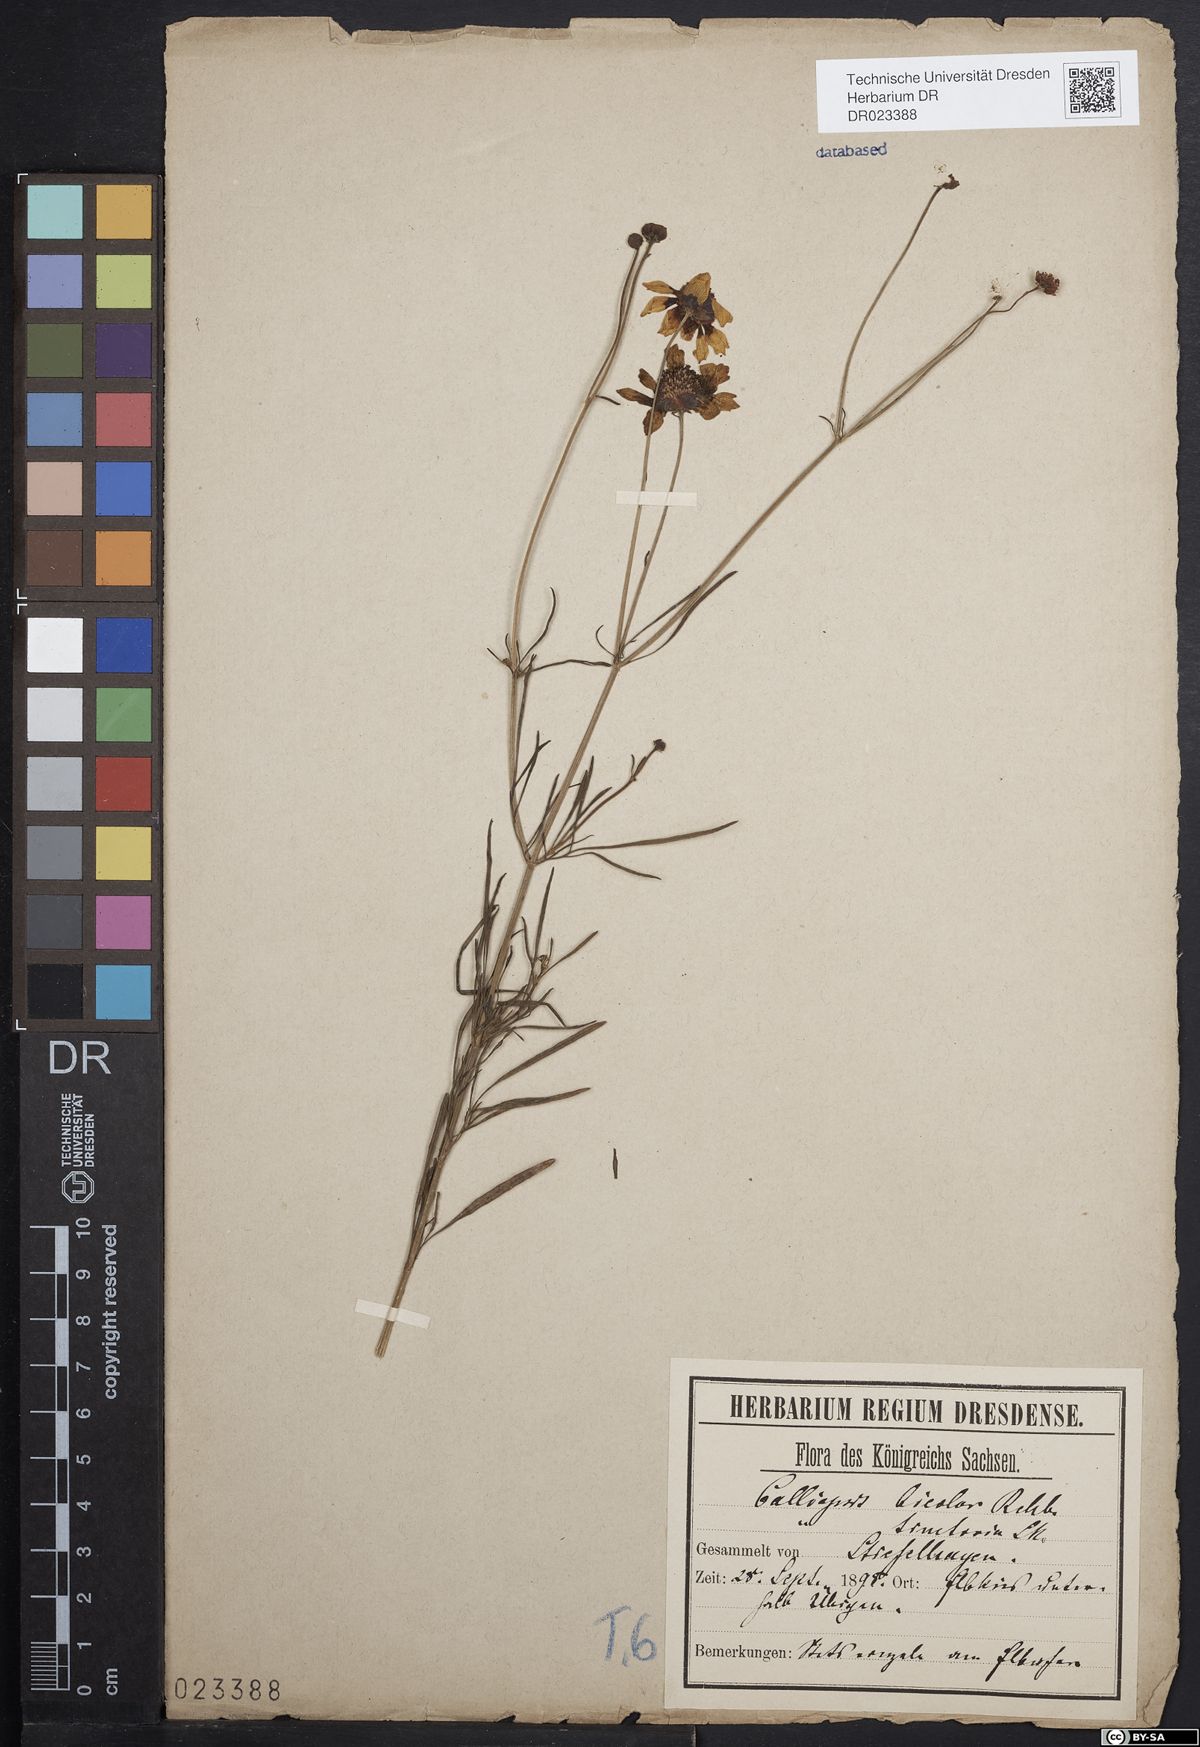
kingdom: Plantae
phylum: Tracheophyta
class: Magnoliopsida
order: Asterales
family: Asteraceae
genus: Coreopsis
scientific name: Coreopsis tinctoria
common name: Garden tickseed
